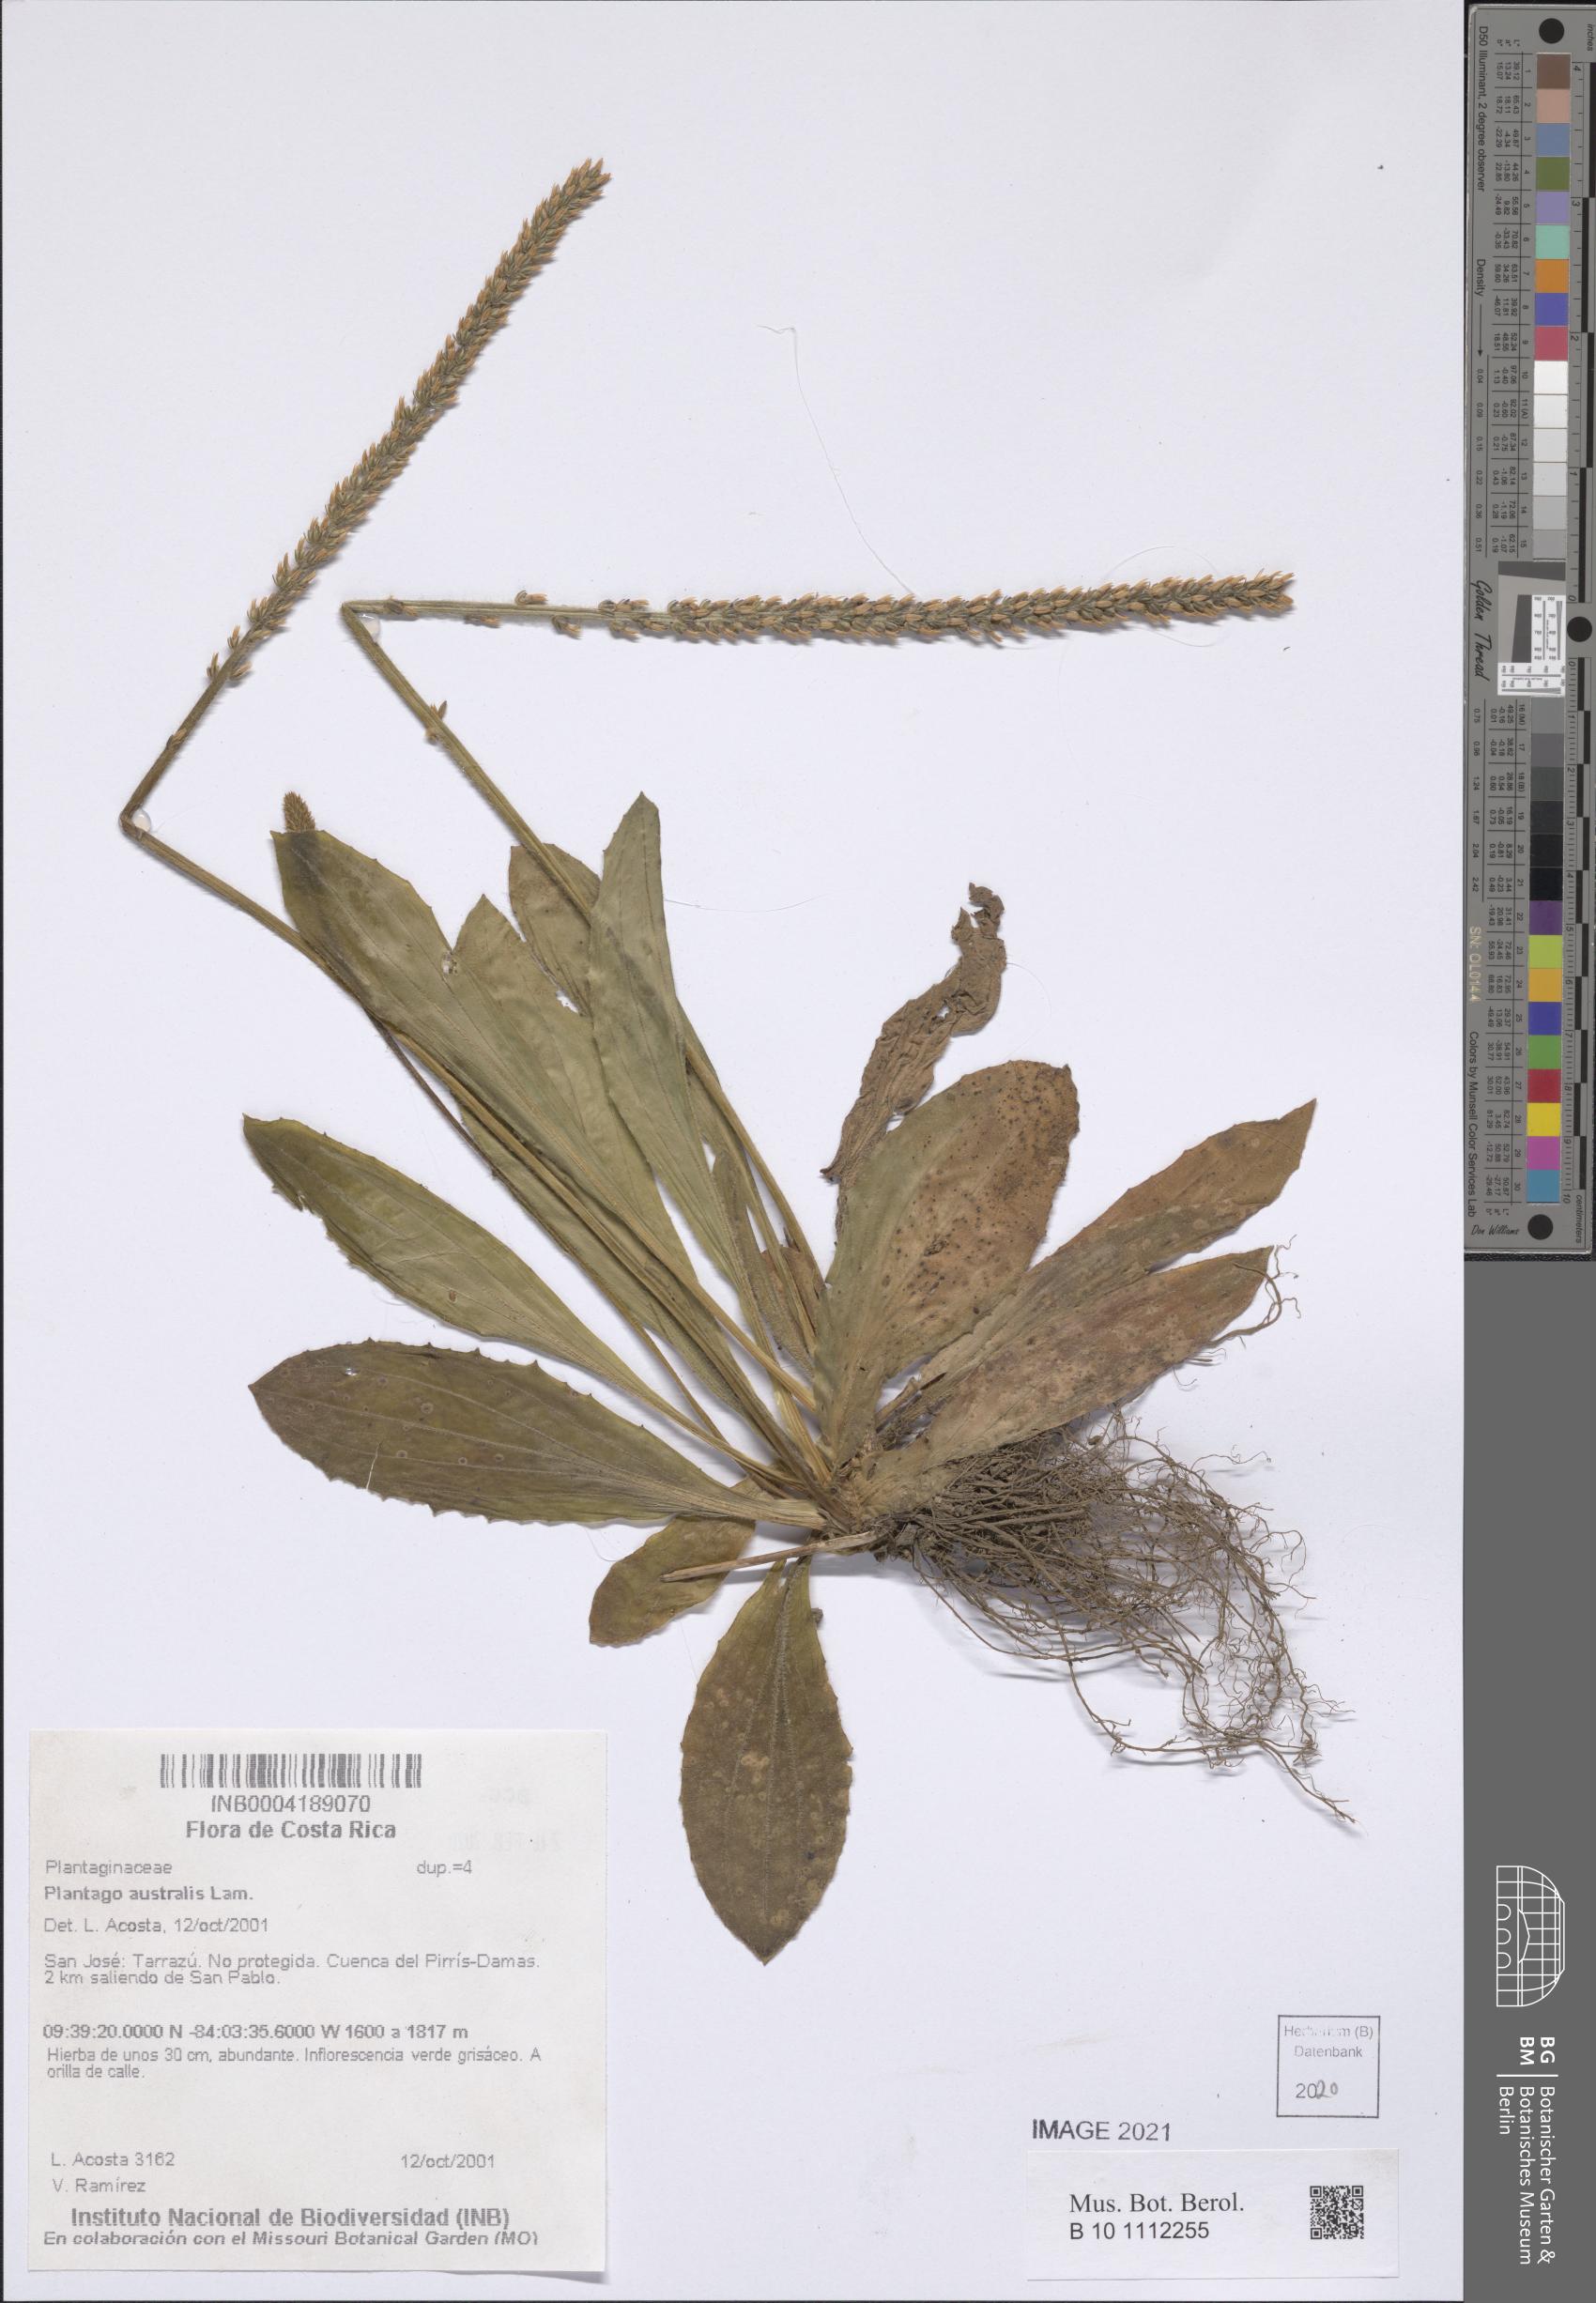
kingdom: Plantae
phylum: Tracheophyta
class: Magnoliopsida
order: Lamiales
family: Plantaginaceae
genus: Plantago
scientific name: Plantago australis
